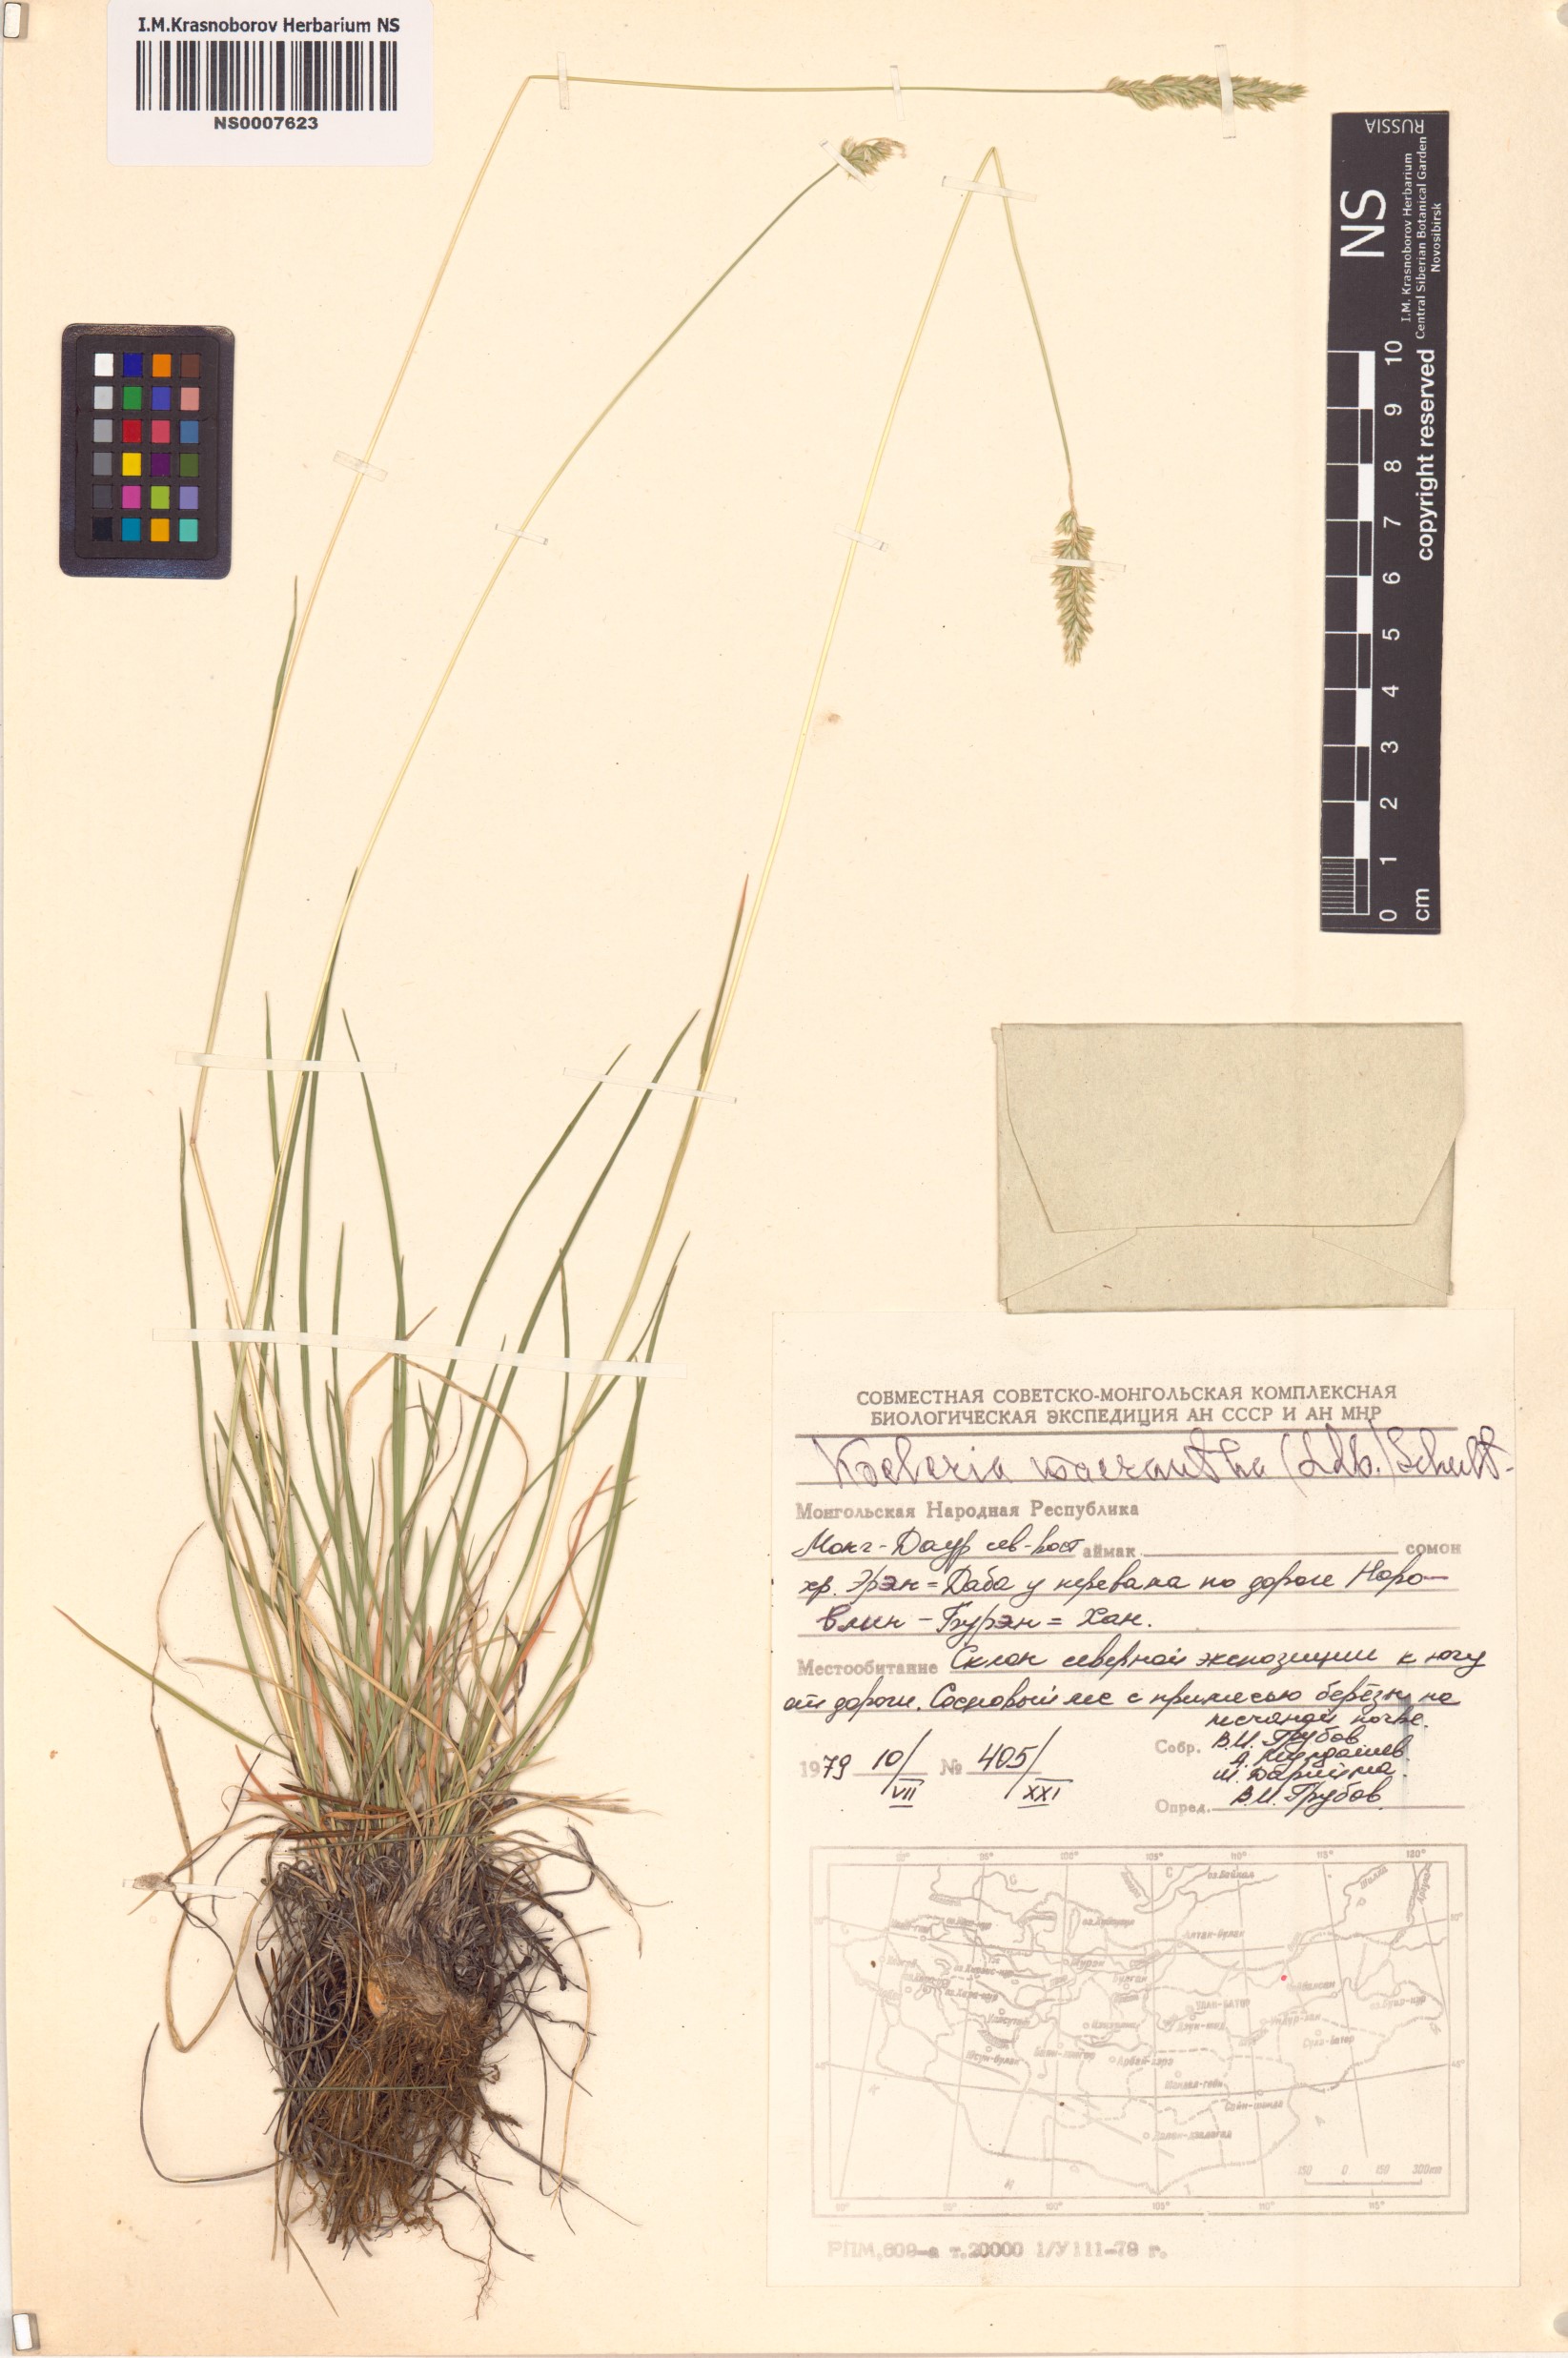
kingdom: Plantae
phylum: Tracheophyta
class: Liliopsida
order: Poales
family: Poaceae
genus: Koeleria
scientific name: Koeleria macrantha
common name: Crested hair-grass
